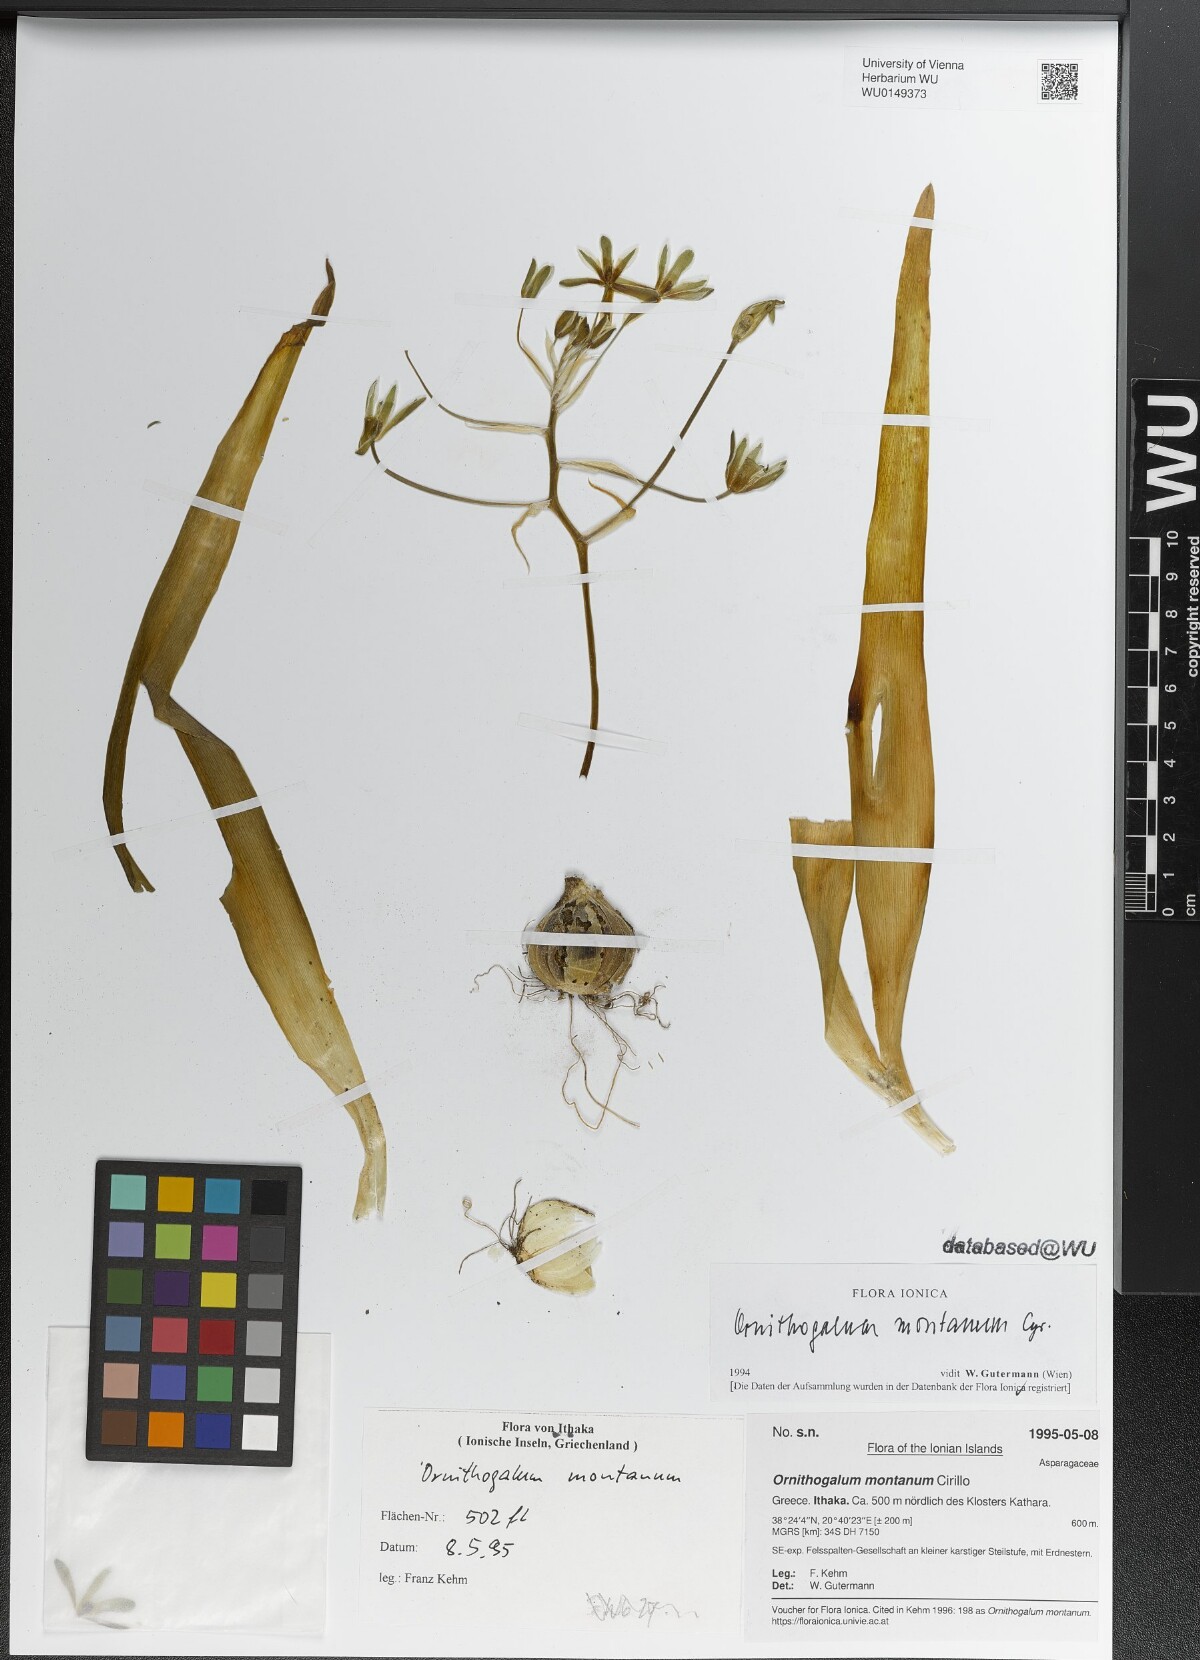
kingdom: Plantae
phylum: Tracheophyta
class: Liliopsida
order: Asparagales
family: Asparagaceae
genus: Ornithogalum
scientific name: Ornithogalum montanum
